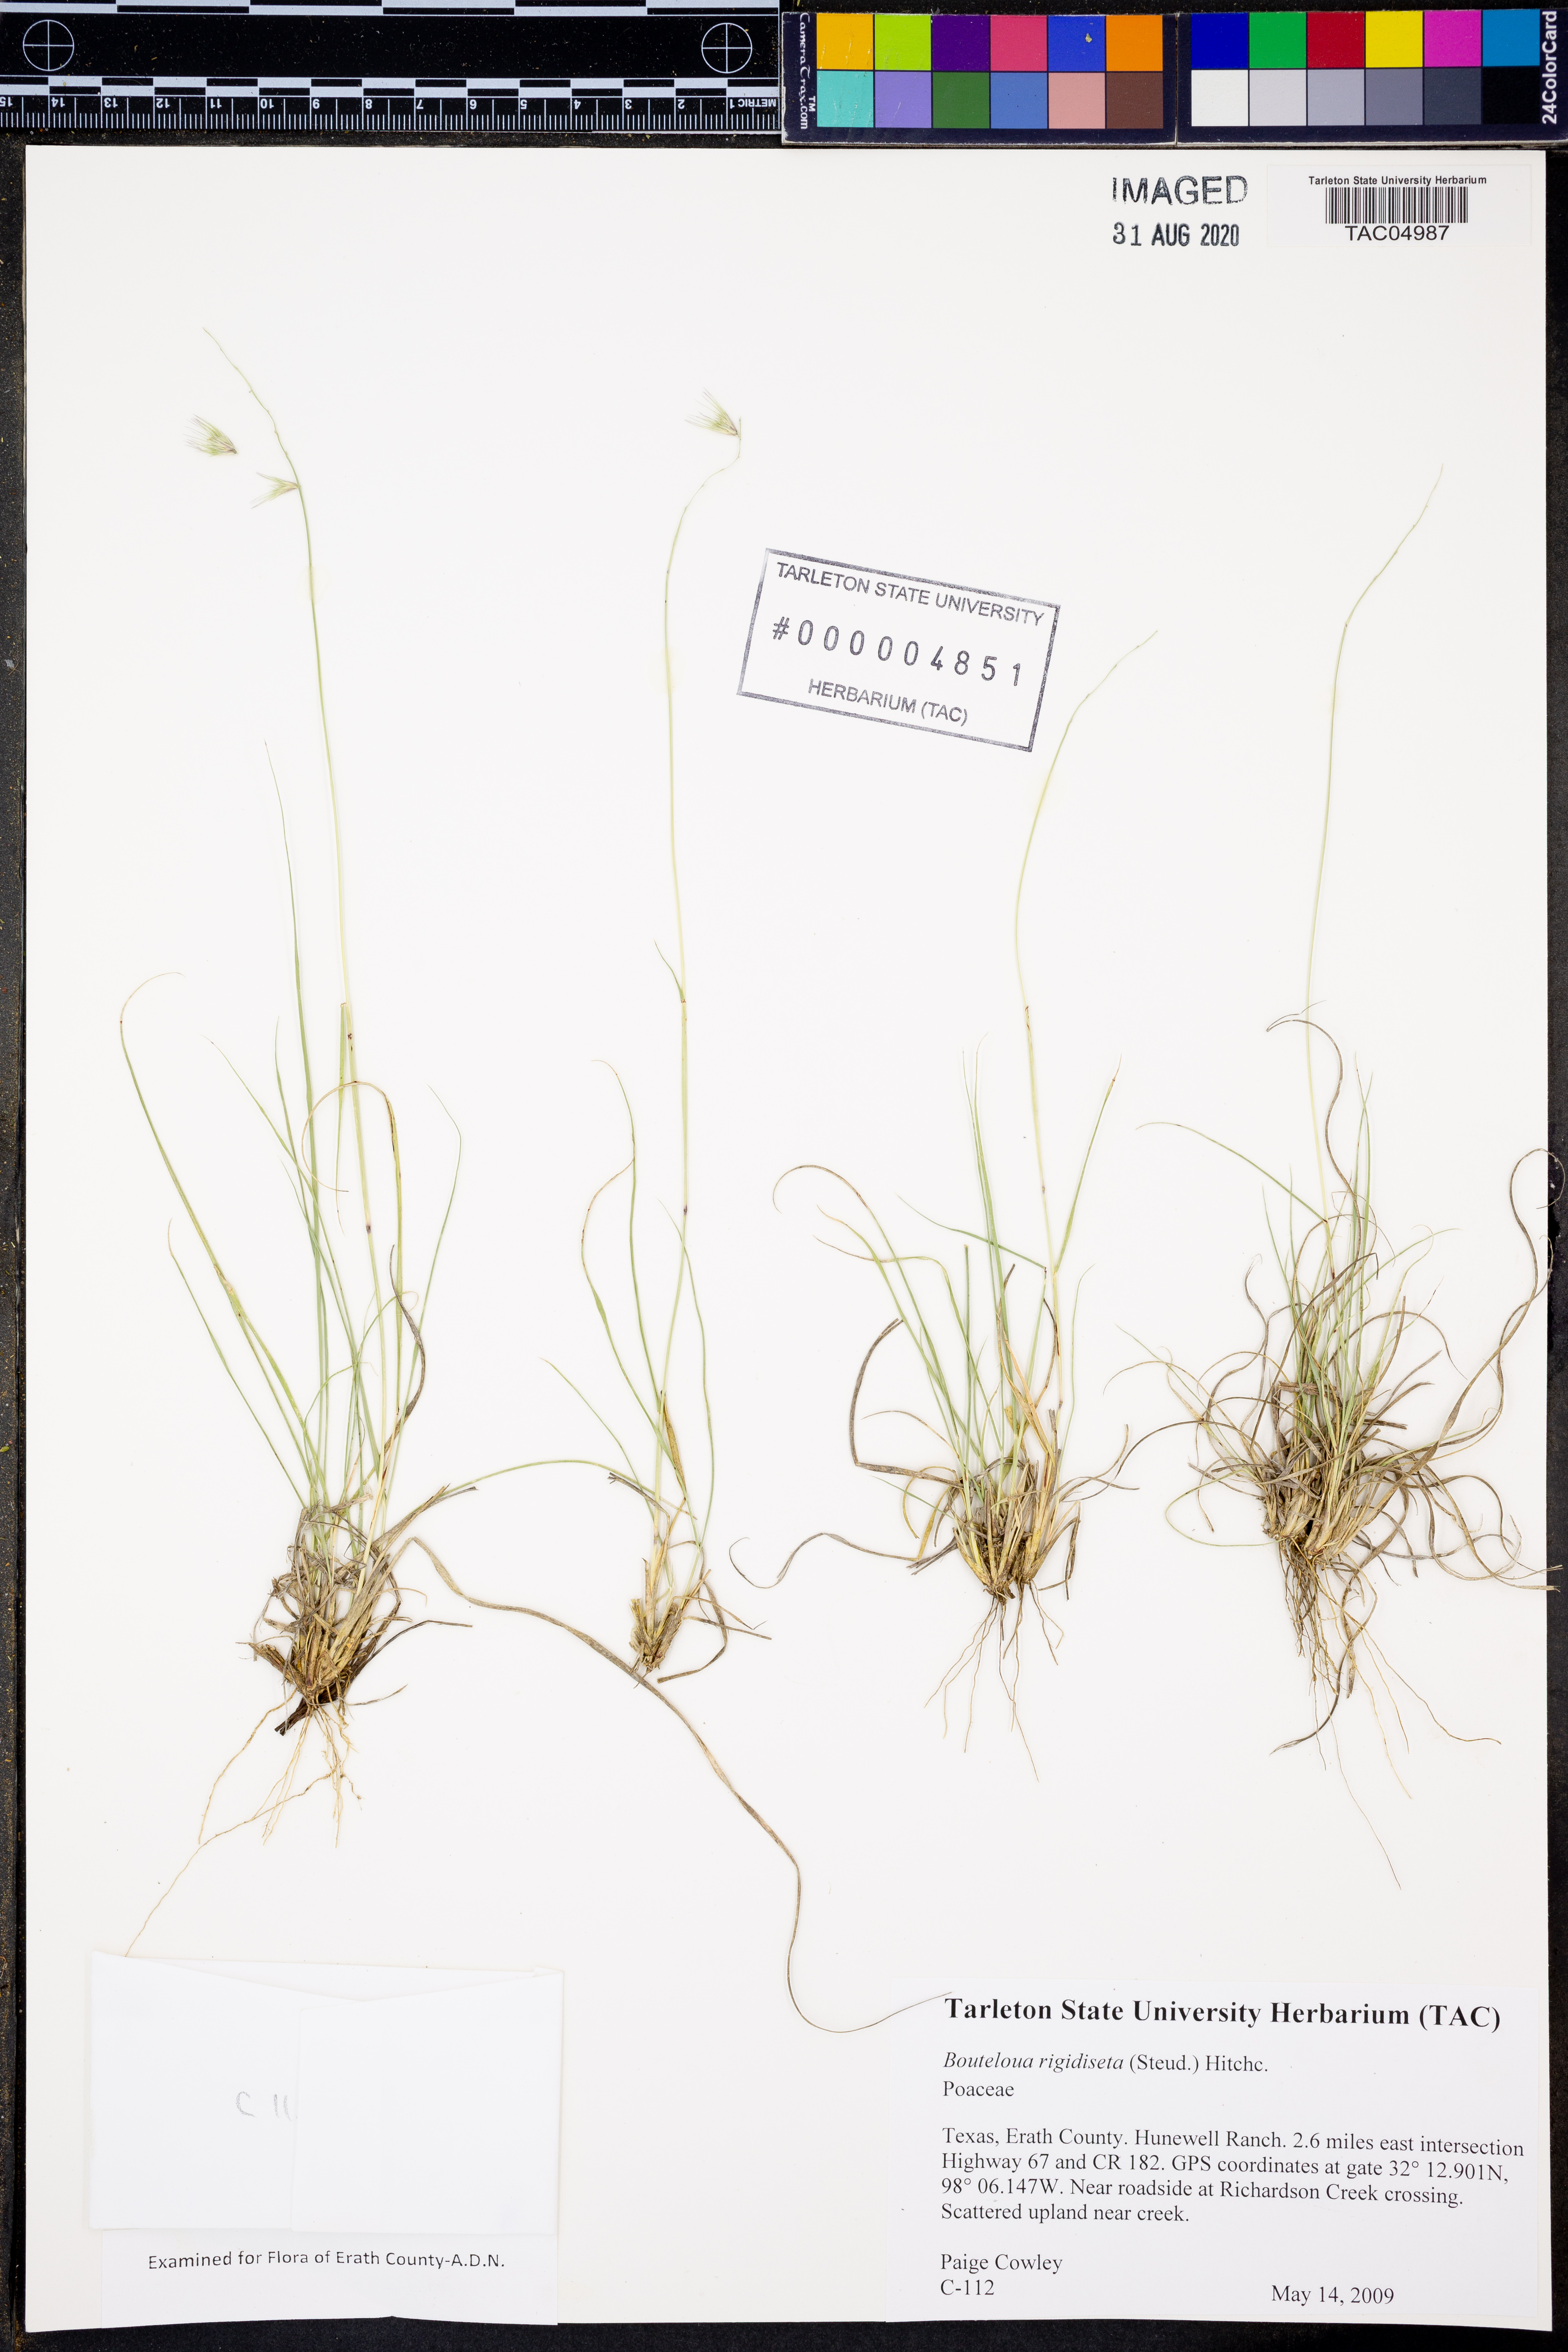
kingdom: Plantae
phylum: Tracheophyta
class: Liliopsida
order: Poales
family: Poaceae
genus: Bouteloua
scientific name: Bouteloua rigidiseta
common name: Texas grama
